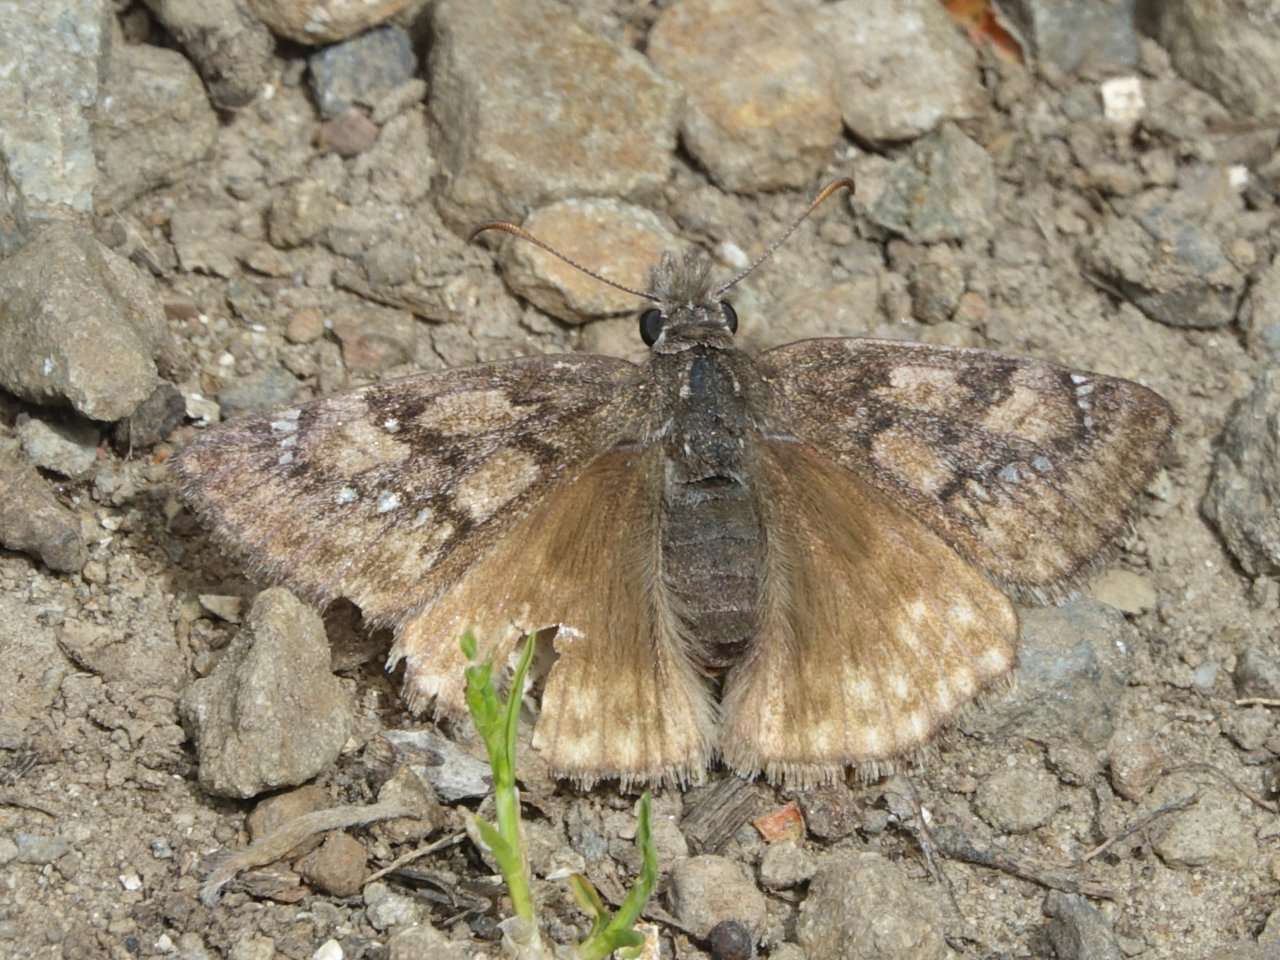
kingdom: Animalia
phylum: Arthropoda
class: Insecta
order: Lepidoptera
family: Hesperiidae
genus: Erynnis
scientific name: Erynnis propertius
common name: Propertius Duskywing
